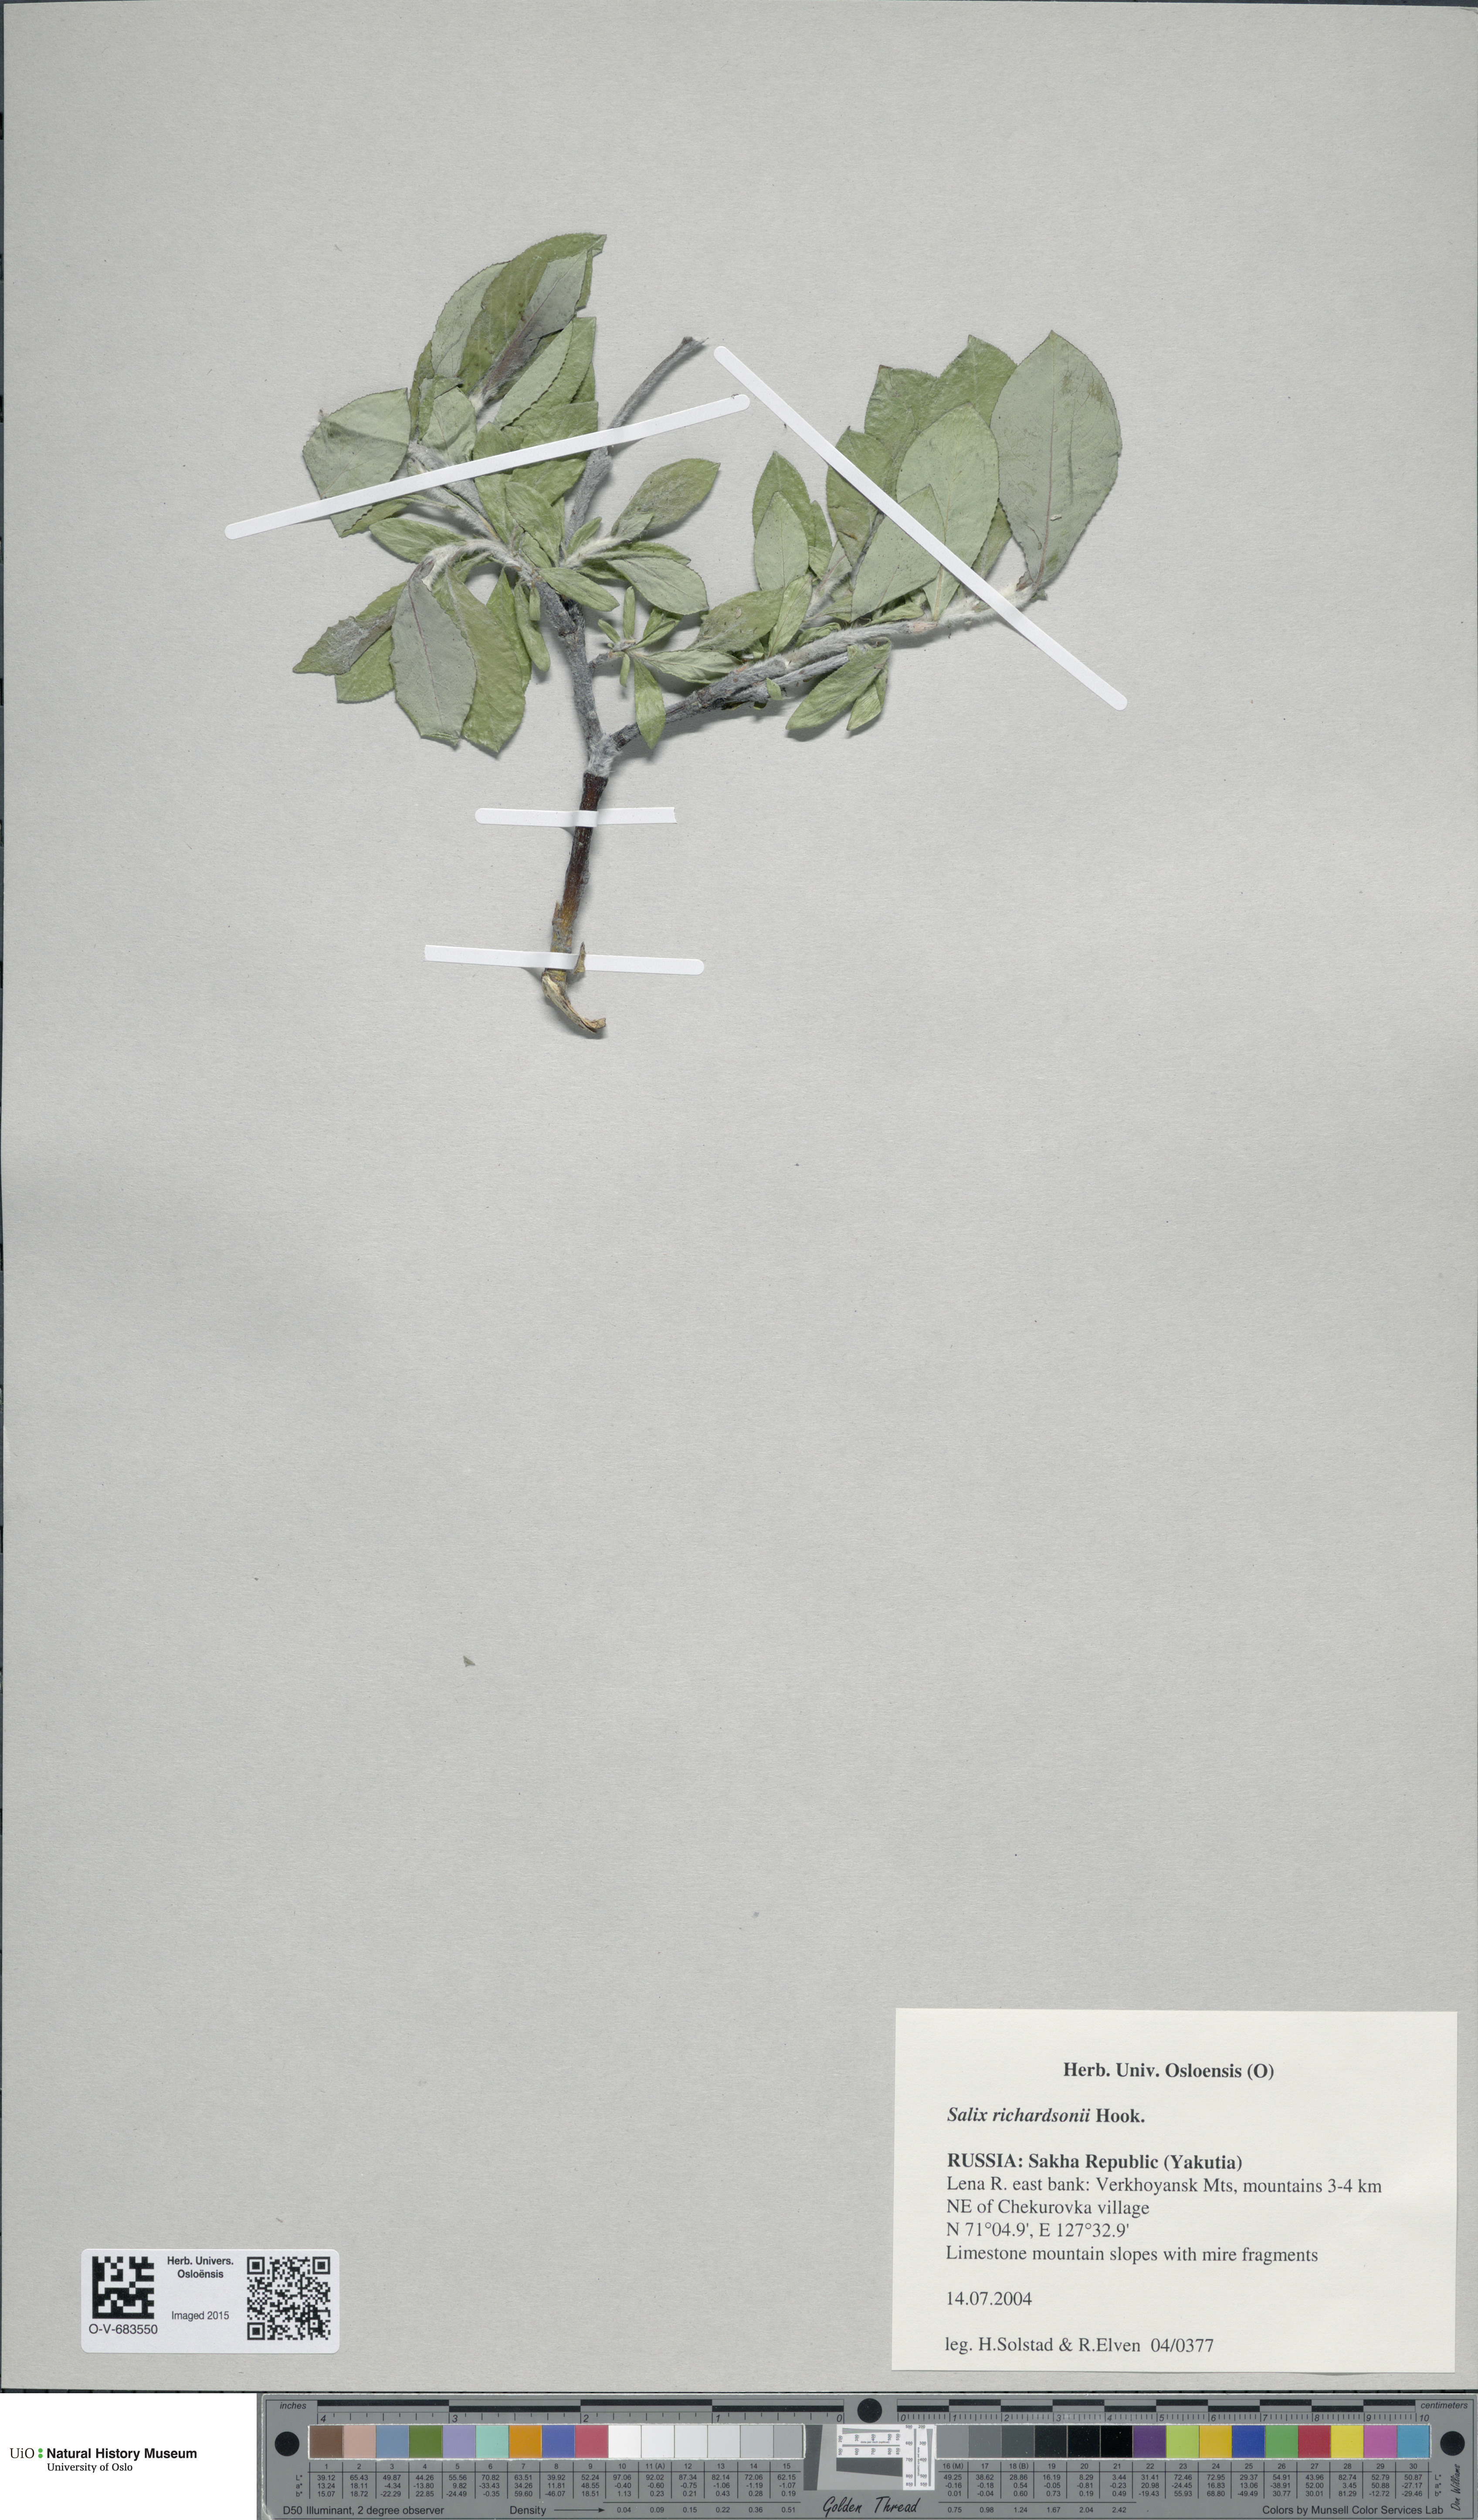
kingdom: Plantae
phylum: Tracheophyta
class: Magnoliopsida
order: Malpighiales
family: Salicaceae
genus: Salix
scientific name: Salix richardsonii
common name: Richardson’s willow
